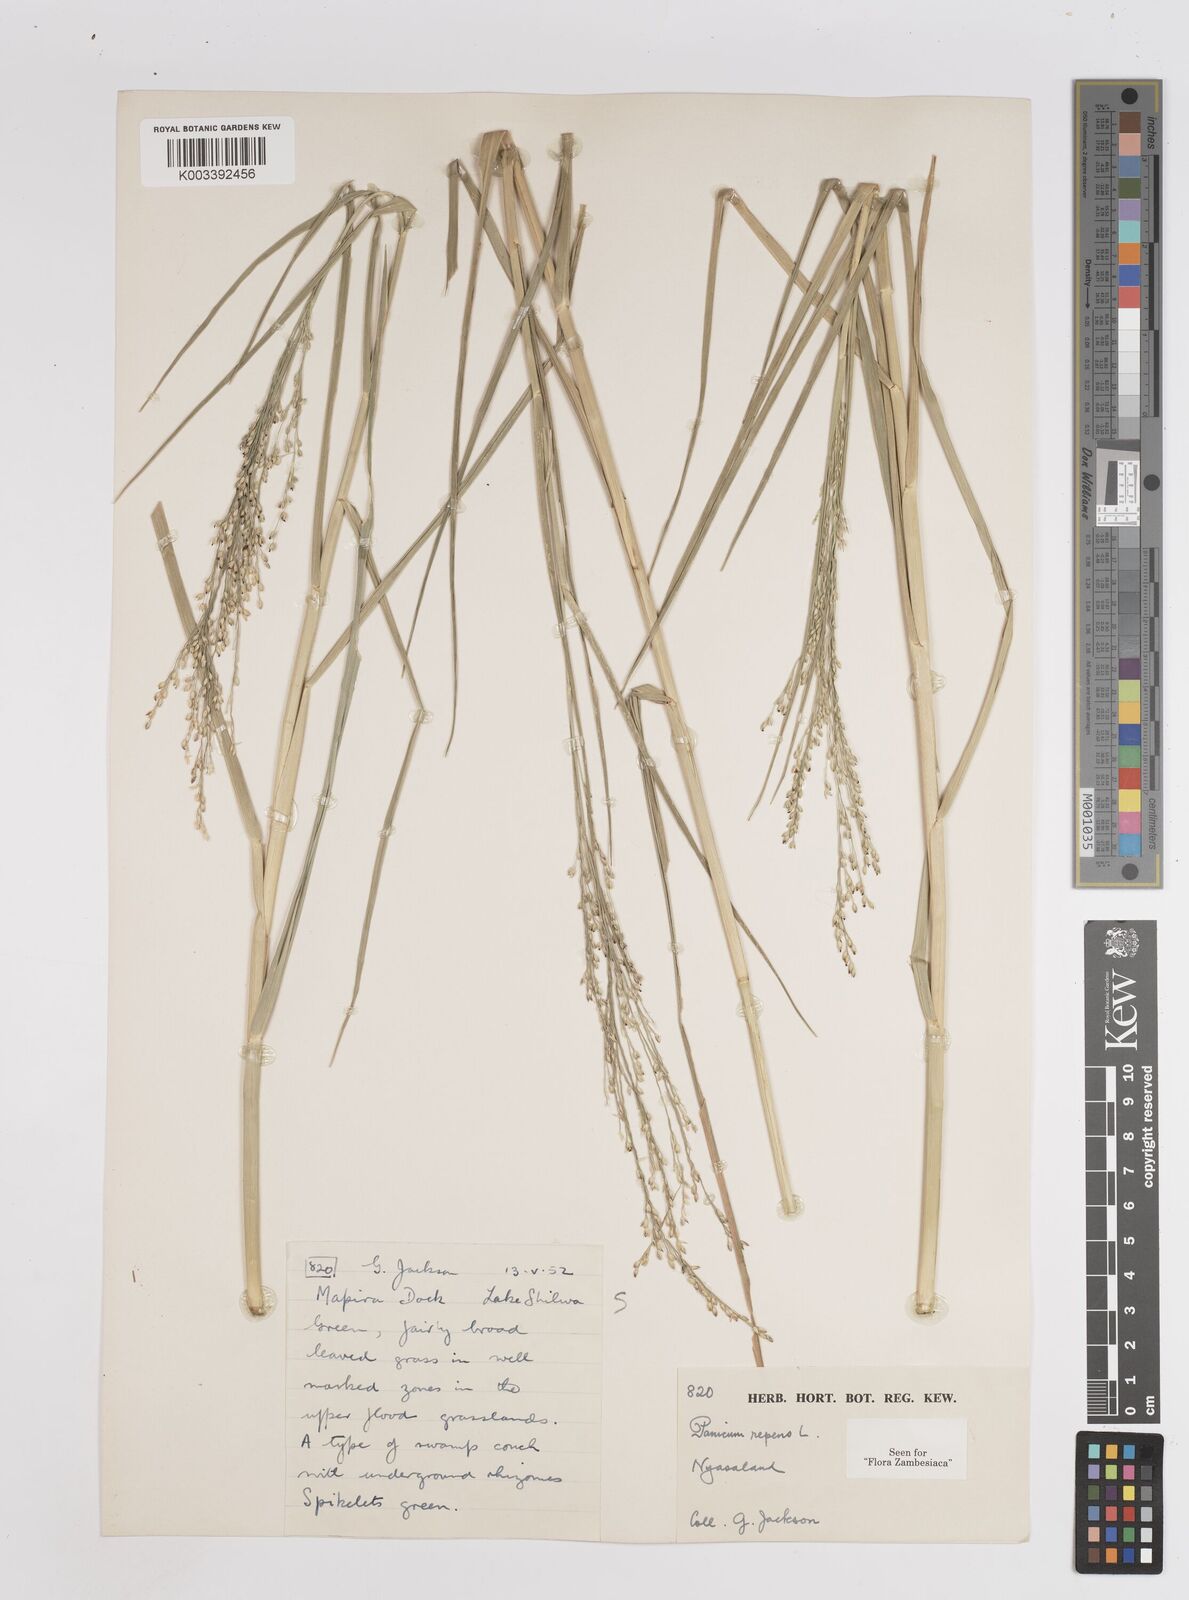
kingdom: Plantae
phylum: Tracheophyta
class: Liliopsida
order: Poales
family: Poaceae
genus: Panicum
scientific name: Panicum repens
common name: Torpedo grass
